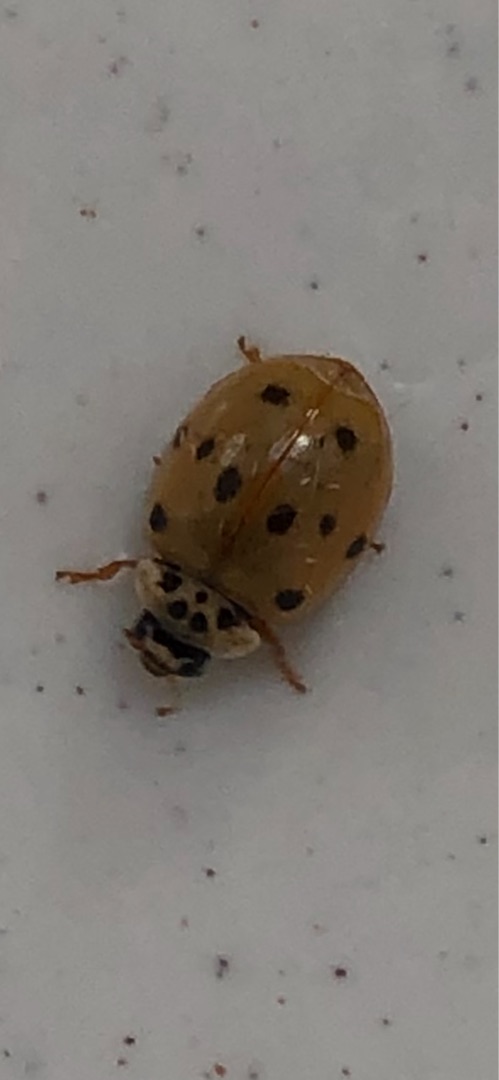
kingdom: Animalia
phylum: Arthropoda
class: Insecta
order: Coleoptera
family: Coccinellidae
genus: Adalia
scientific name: Adalia decempunctata
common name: Tiplettet mariehøne
